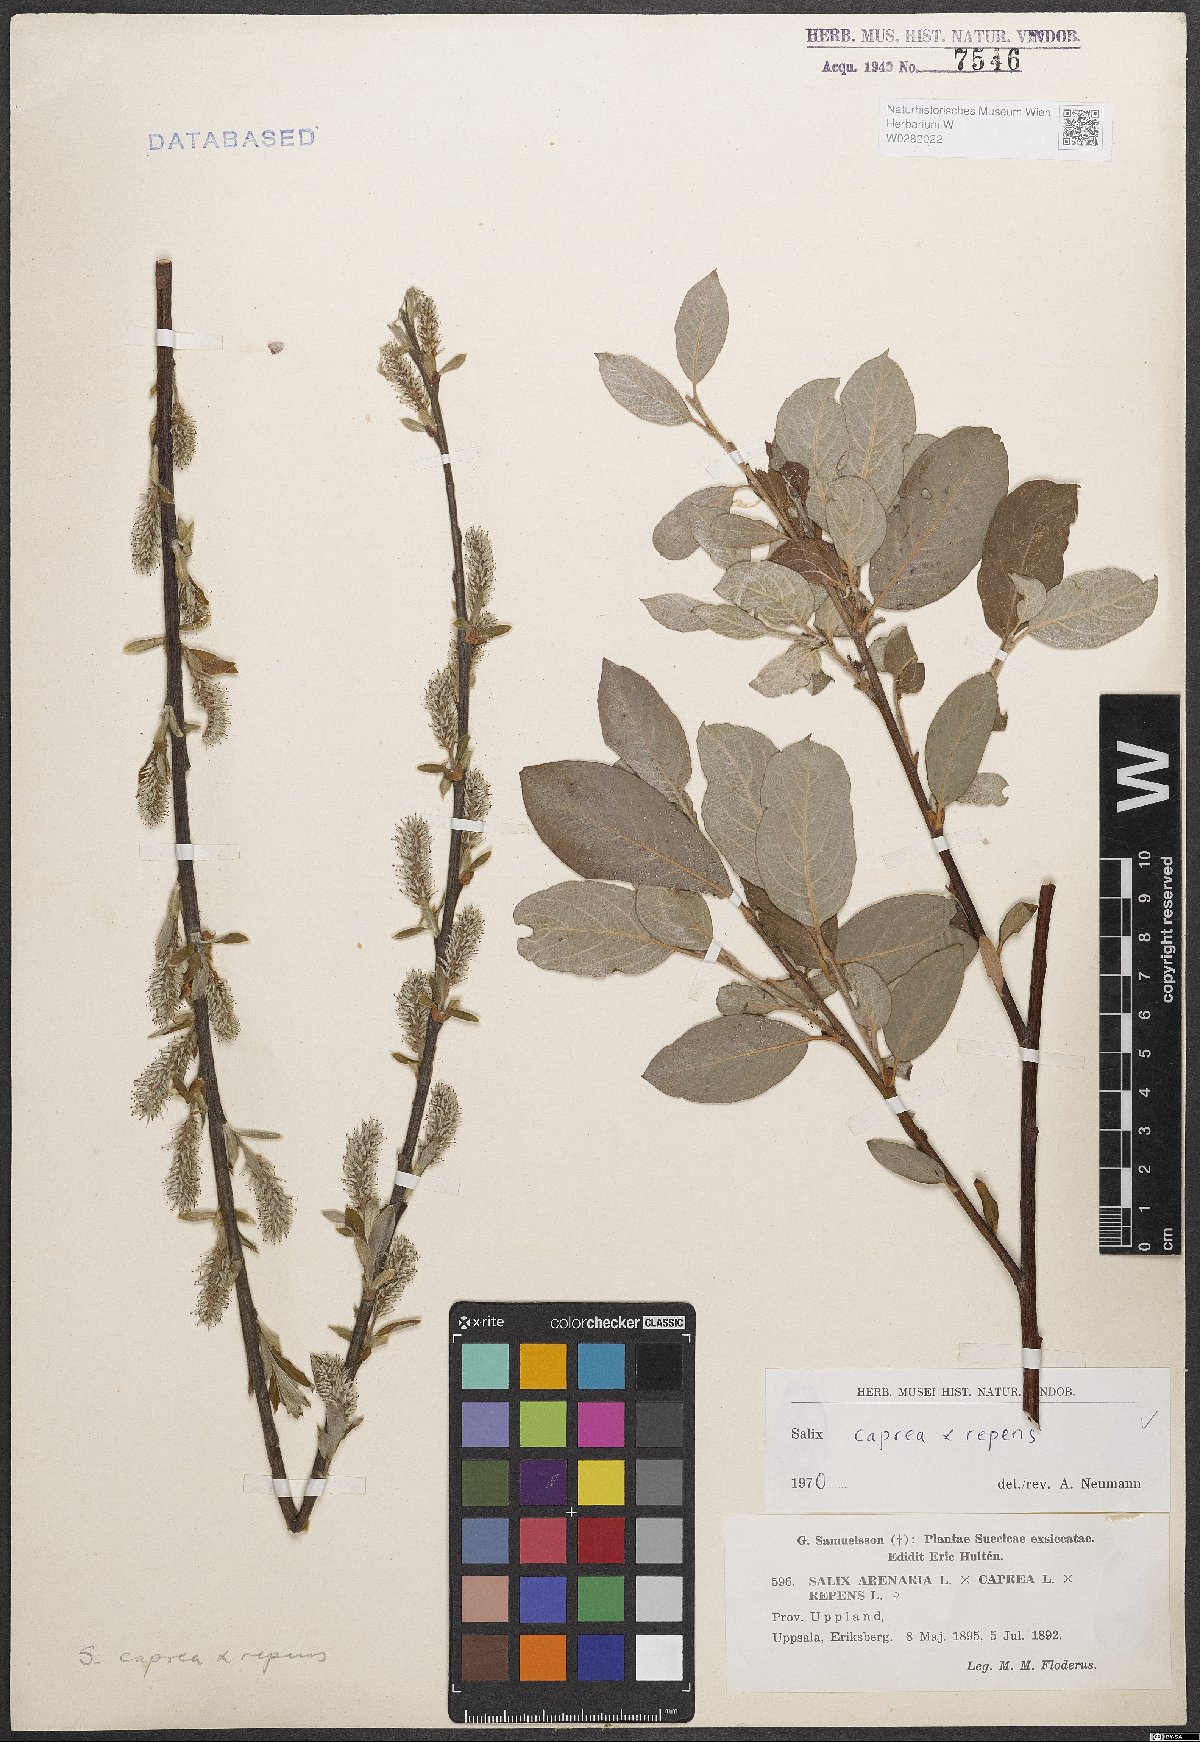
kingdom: Plantae
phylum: Tracheophyta
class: Magnoliopsida
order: Malpighiales
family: Salicaceae
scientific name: Salicaceae
